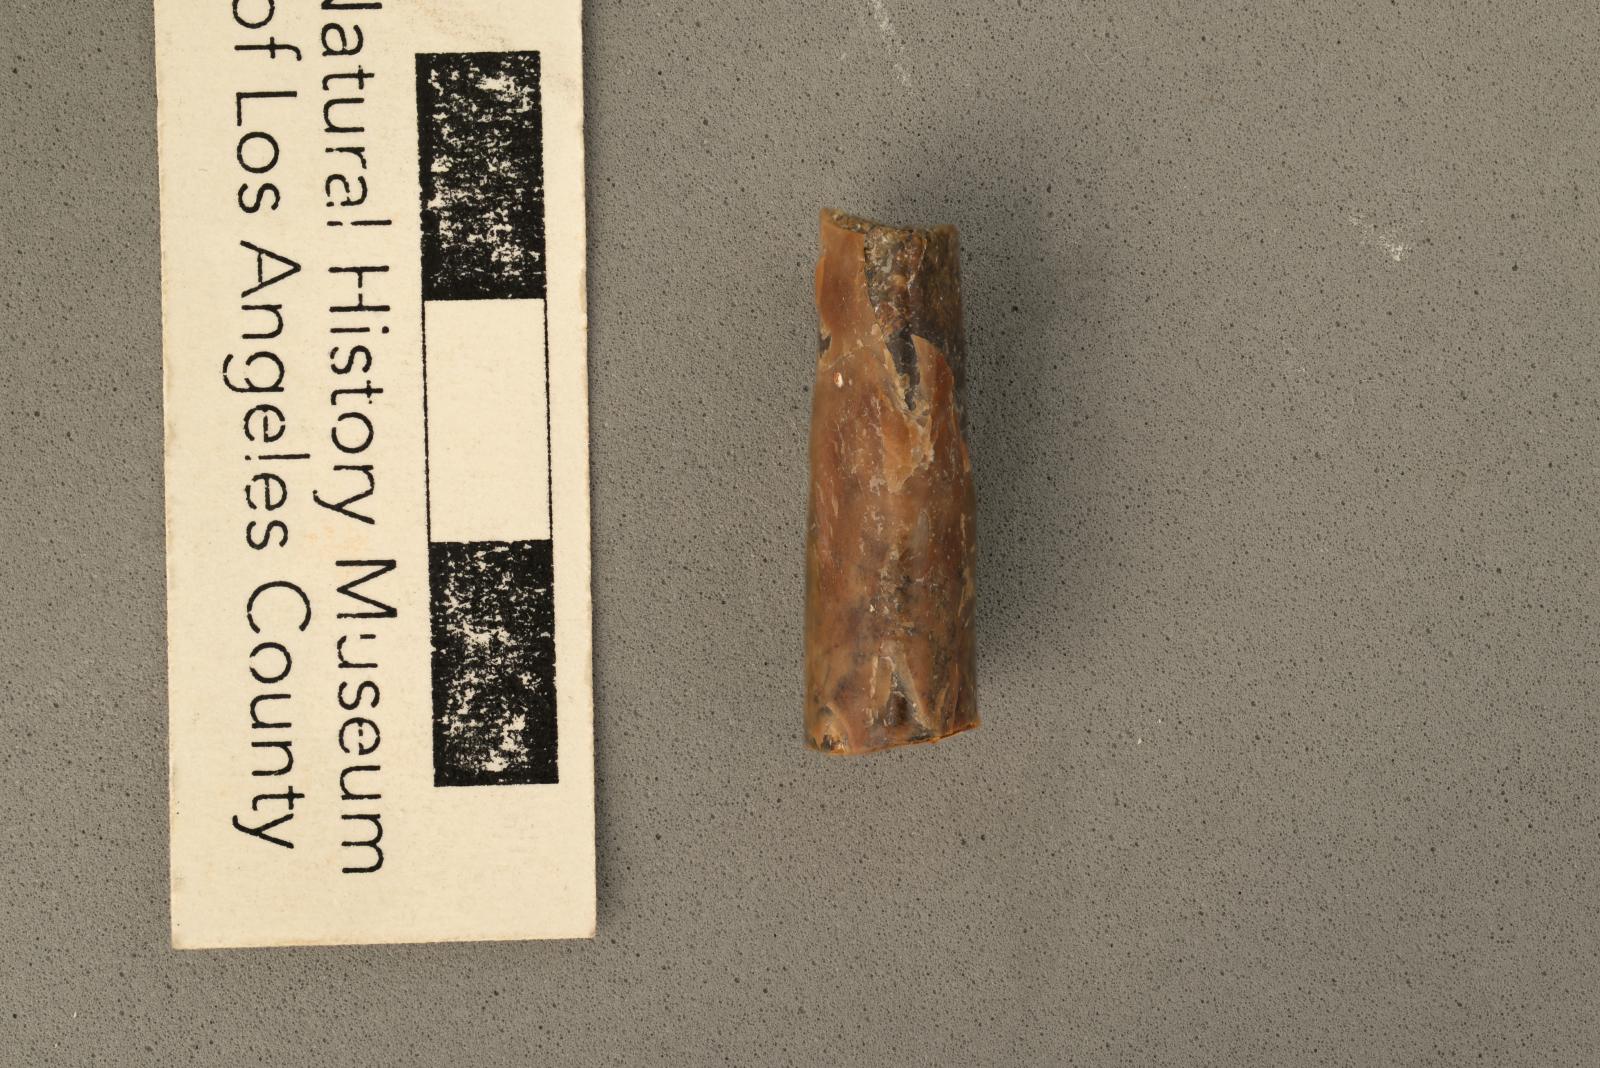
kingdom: Animalia
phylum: Mollusca
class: Cephalopoda
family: Baculitidae
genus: Baculites
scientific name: Baculites kirki
